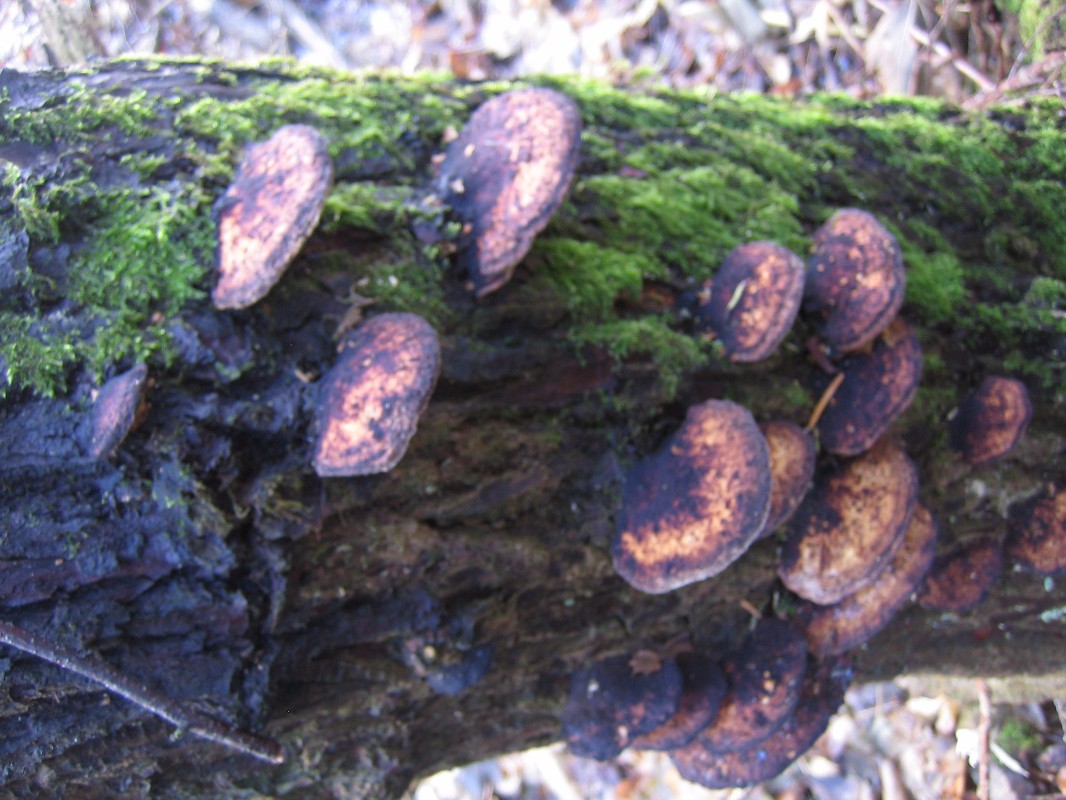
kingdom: Fungi
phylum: Basidiomycota
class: Agaricomycetes
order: Polyporales
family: Polyporaceae
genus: Daedaleopsis
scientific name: Daedaleopsis confragosa
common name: rødmende læderporesvamp
